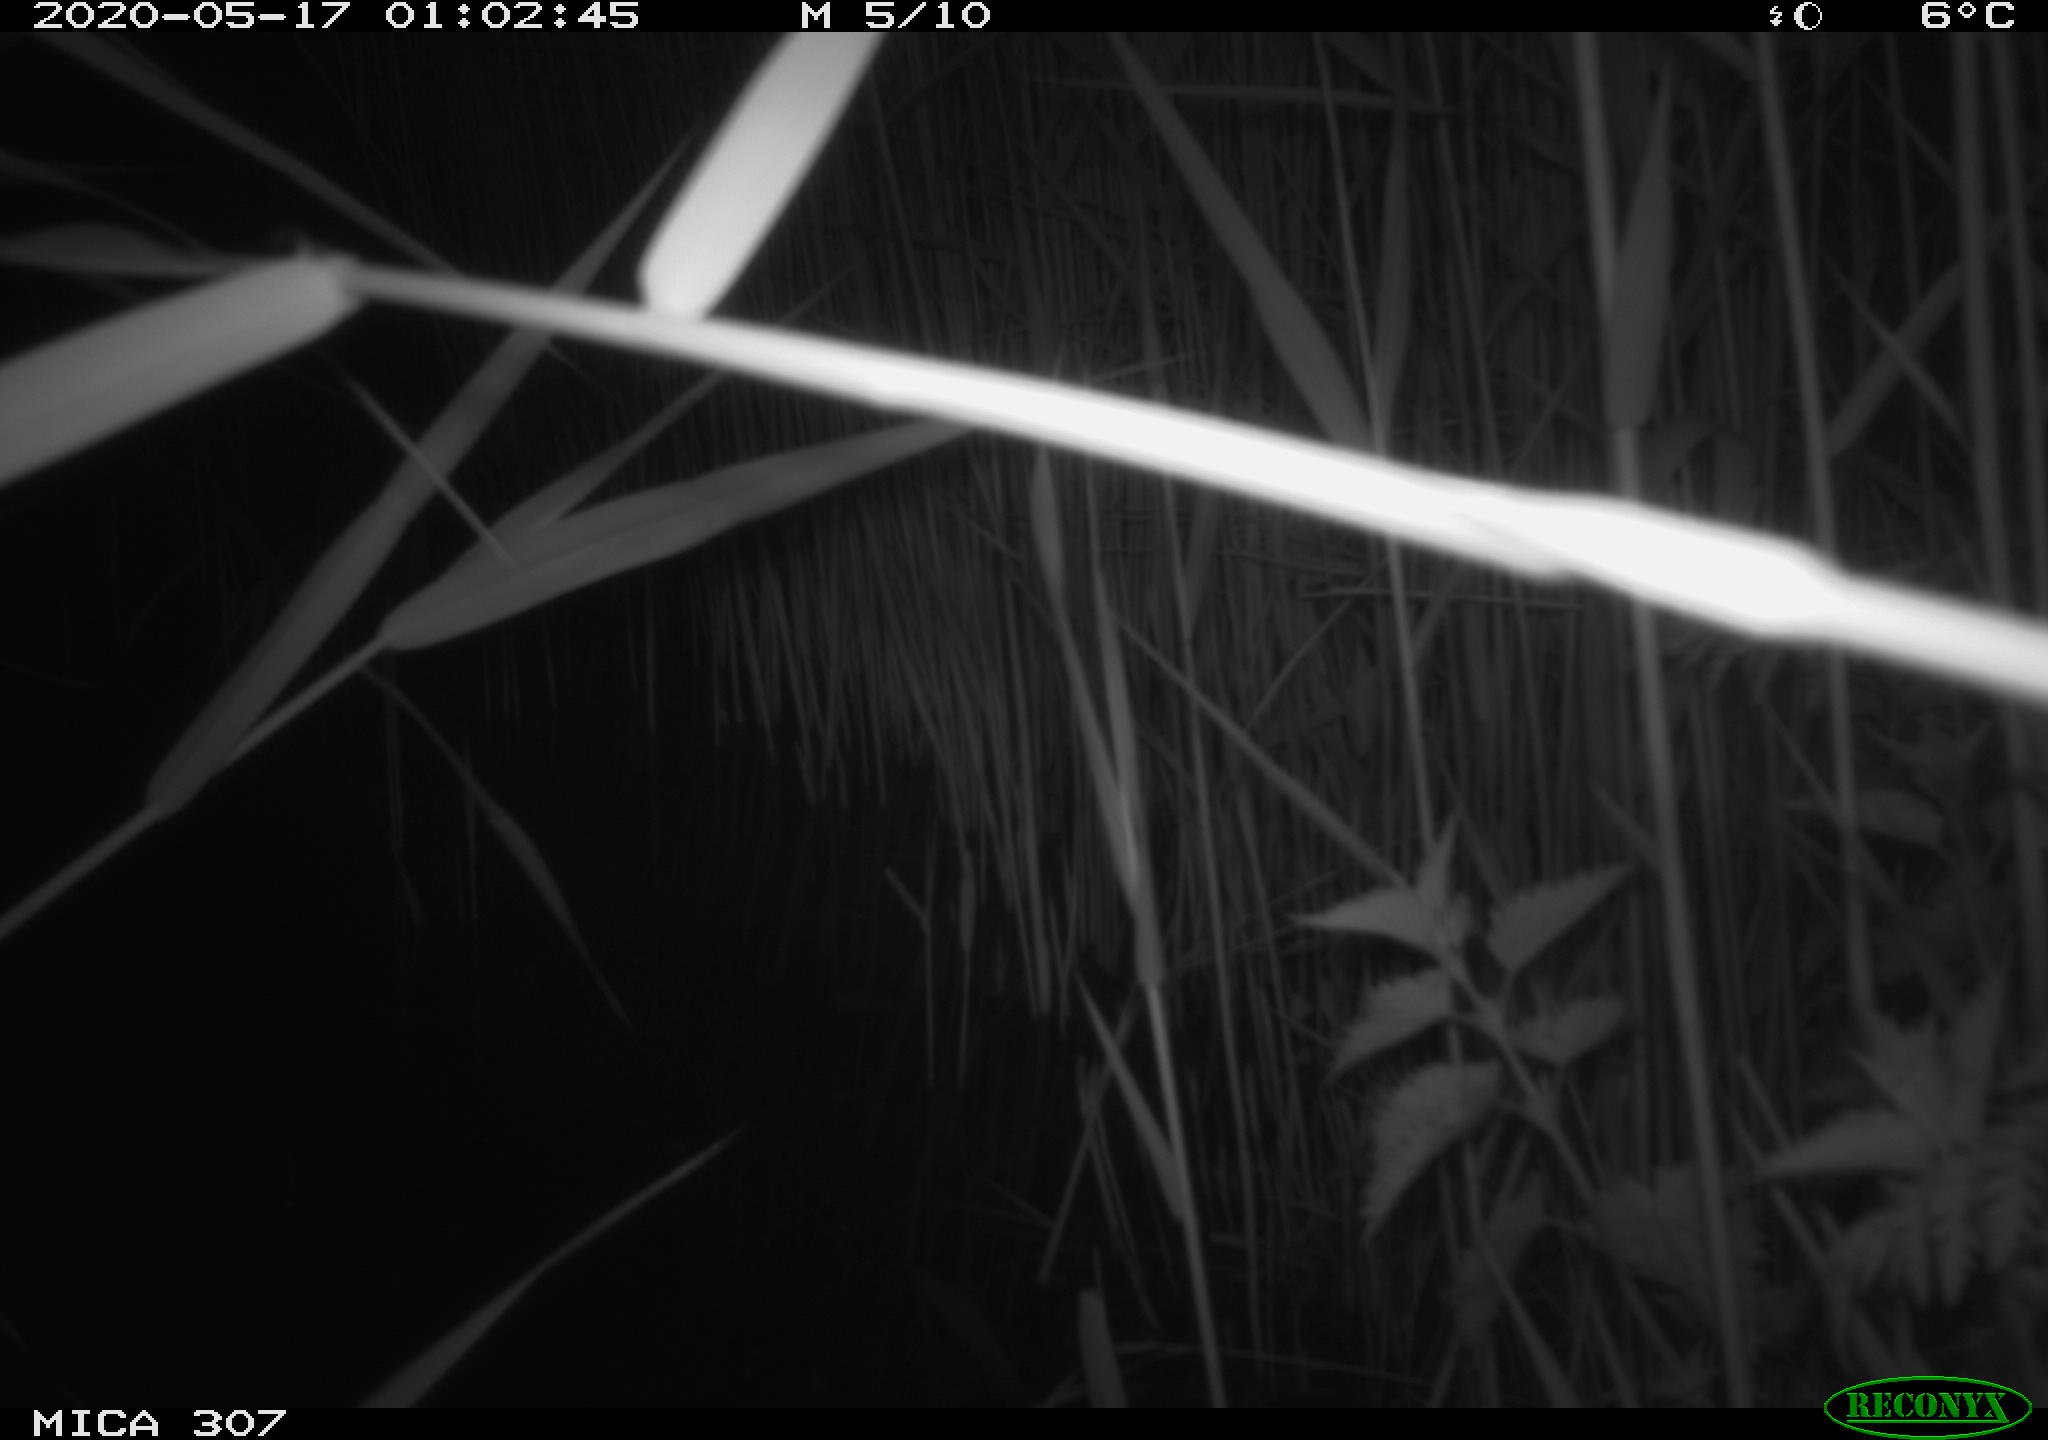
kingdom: Animalia
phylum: Chordata
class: Aves
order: Anseriformes
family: Anatidae
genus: Anas
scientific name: Anas platyrhynchos
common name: Mallard
